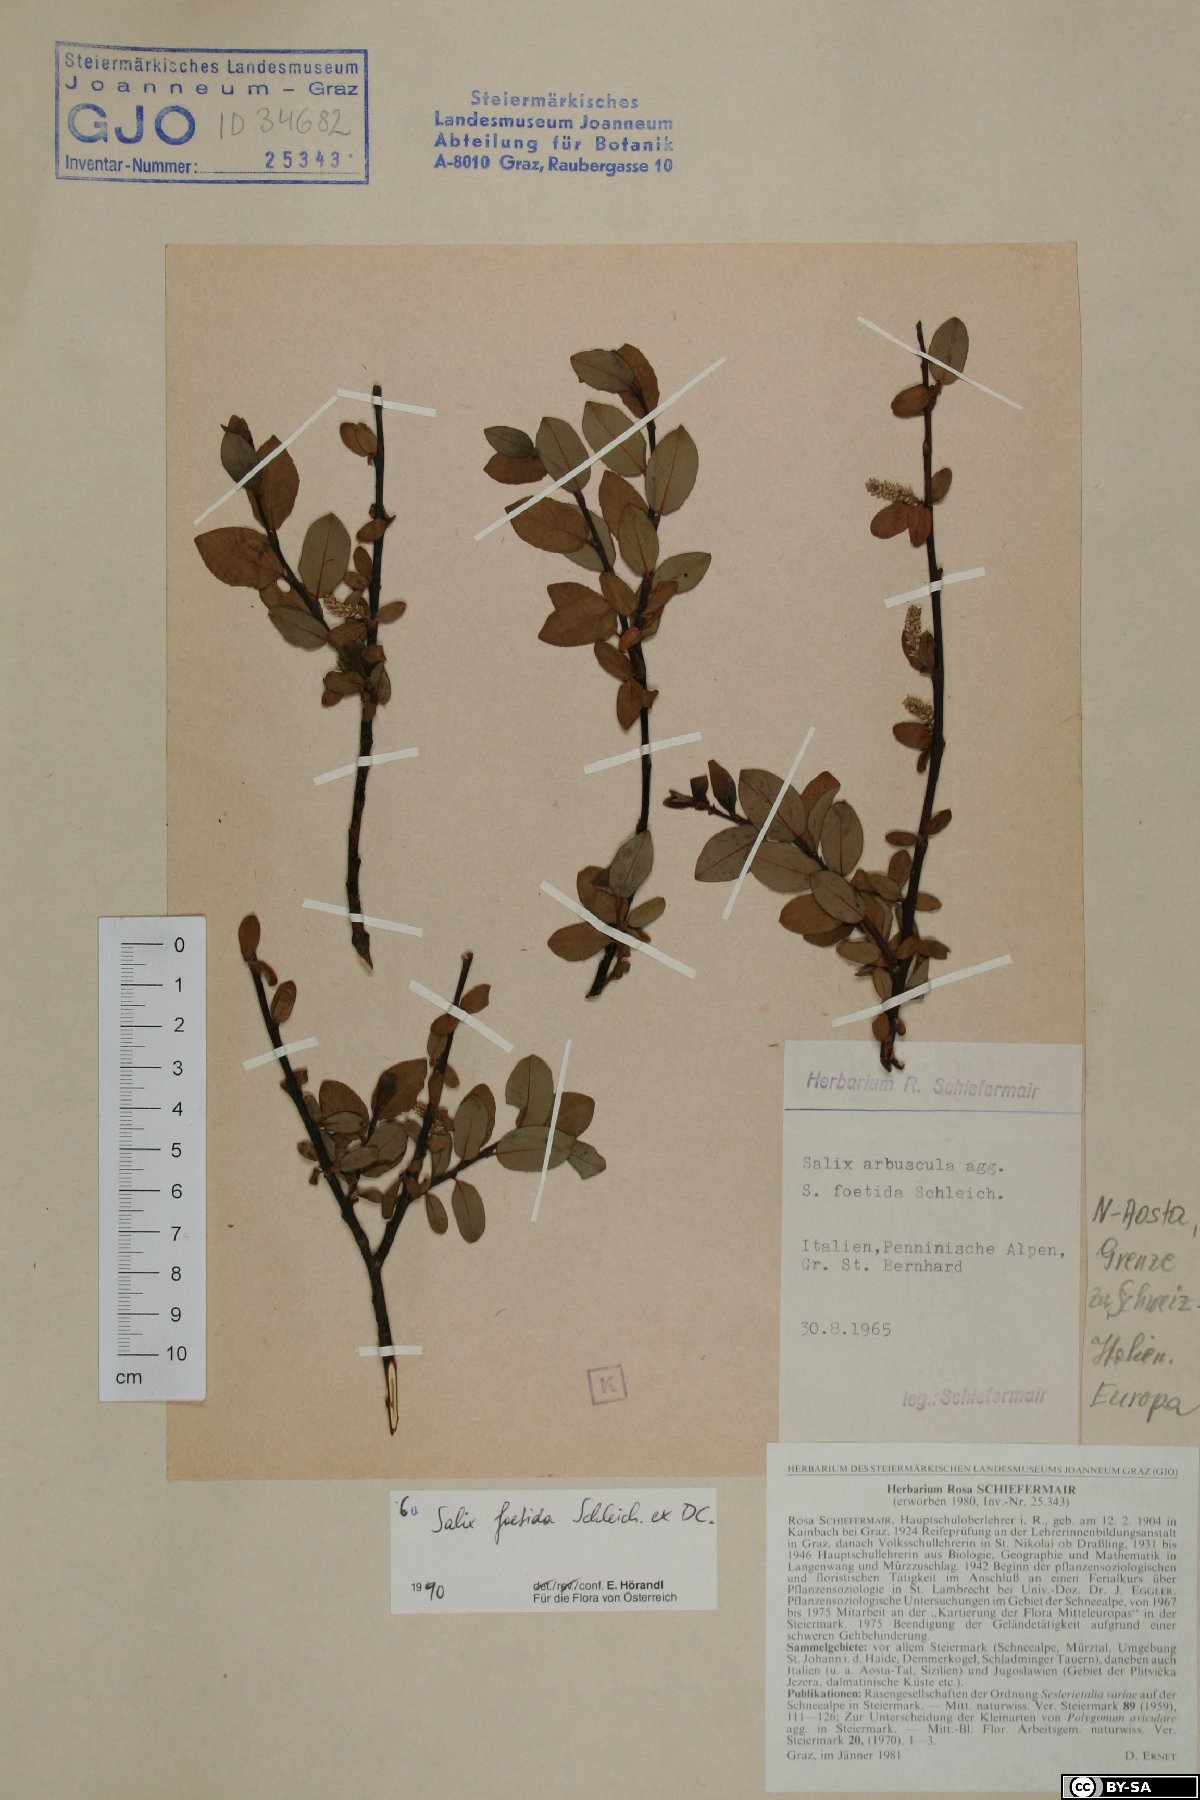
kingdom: Plantae
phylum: Tracheophyta
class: Magnoliopsida
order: Malpighiales
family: Salicaceae
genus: Salix
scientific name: Salix foetida
